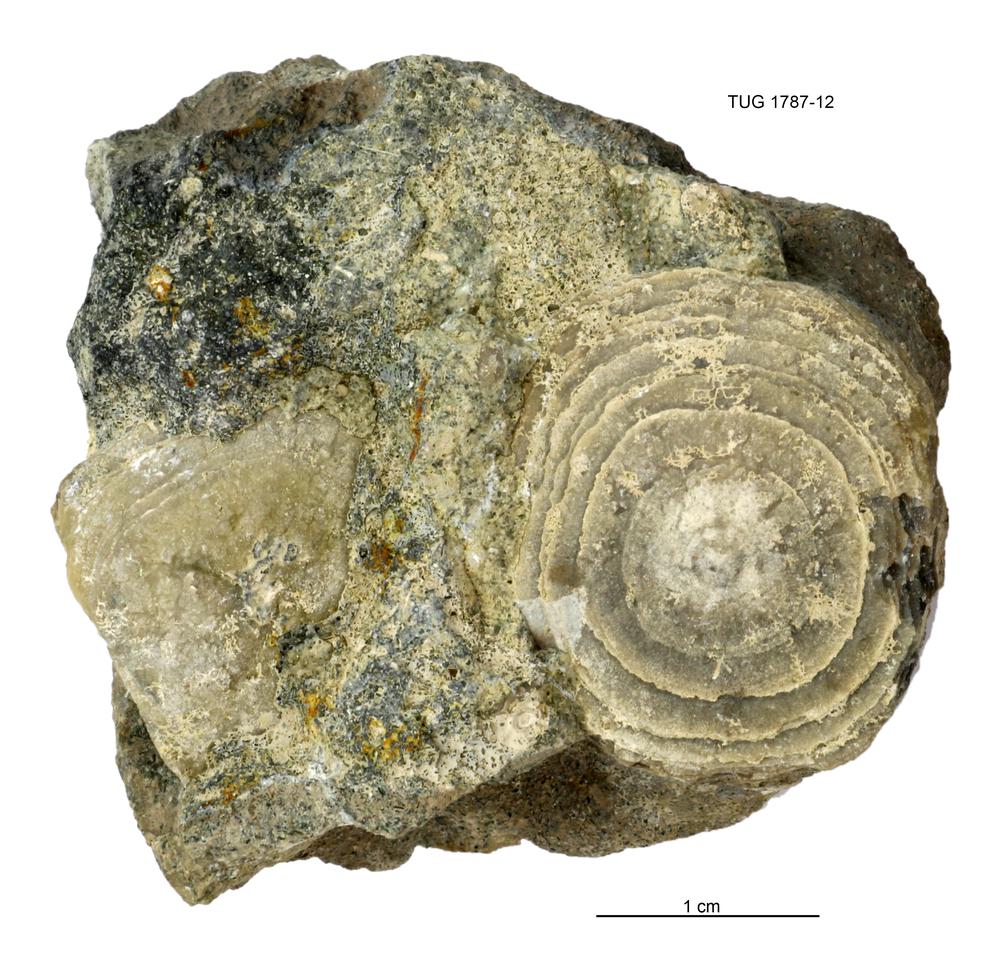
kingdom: Animalia
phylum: Brachiopoda
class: Lingulata
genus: Pseudometoptoma
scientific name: Pseudometoptoma
